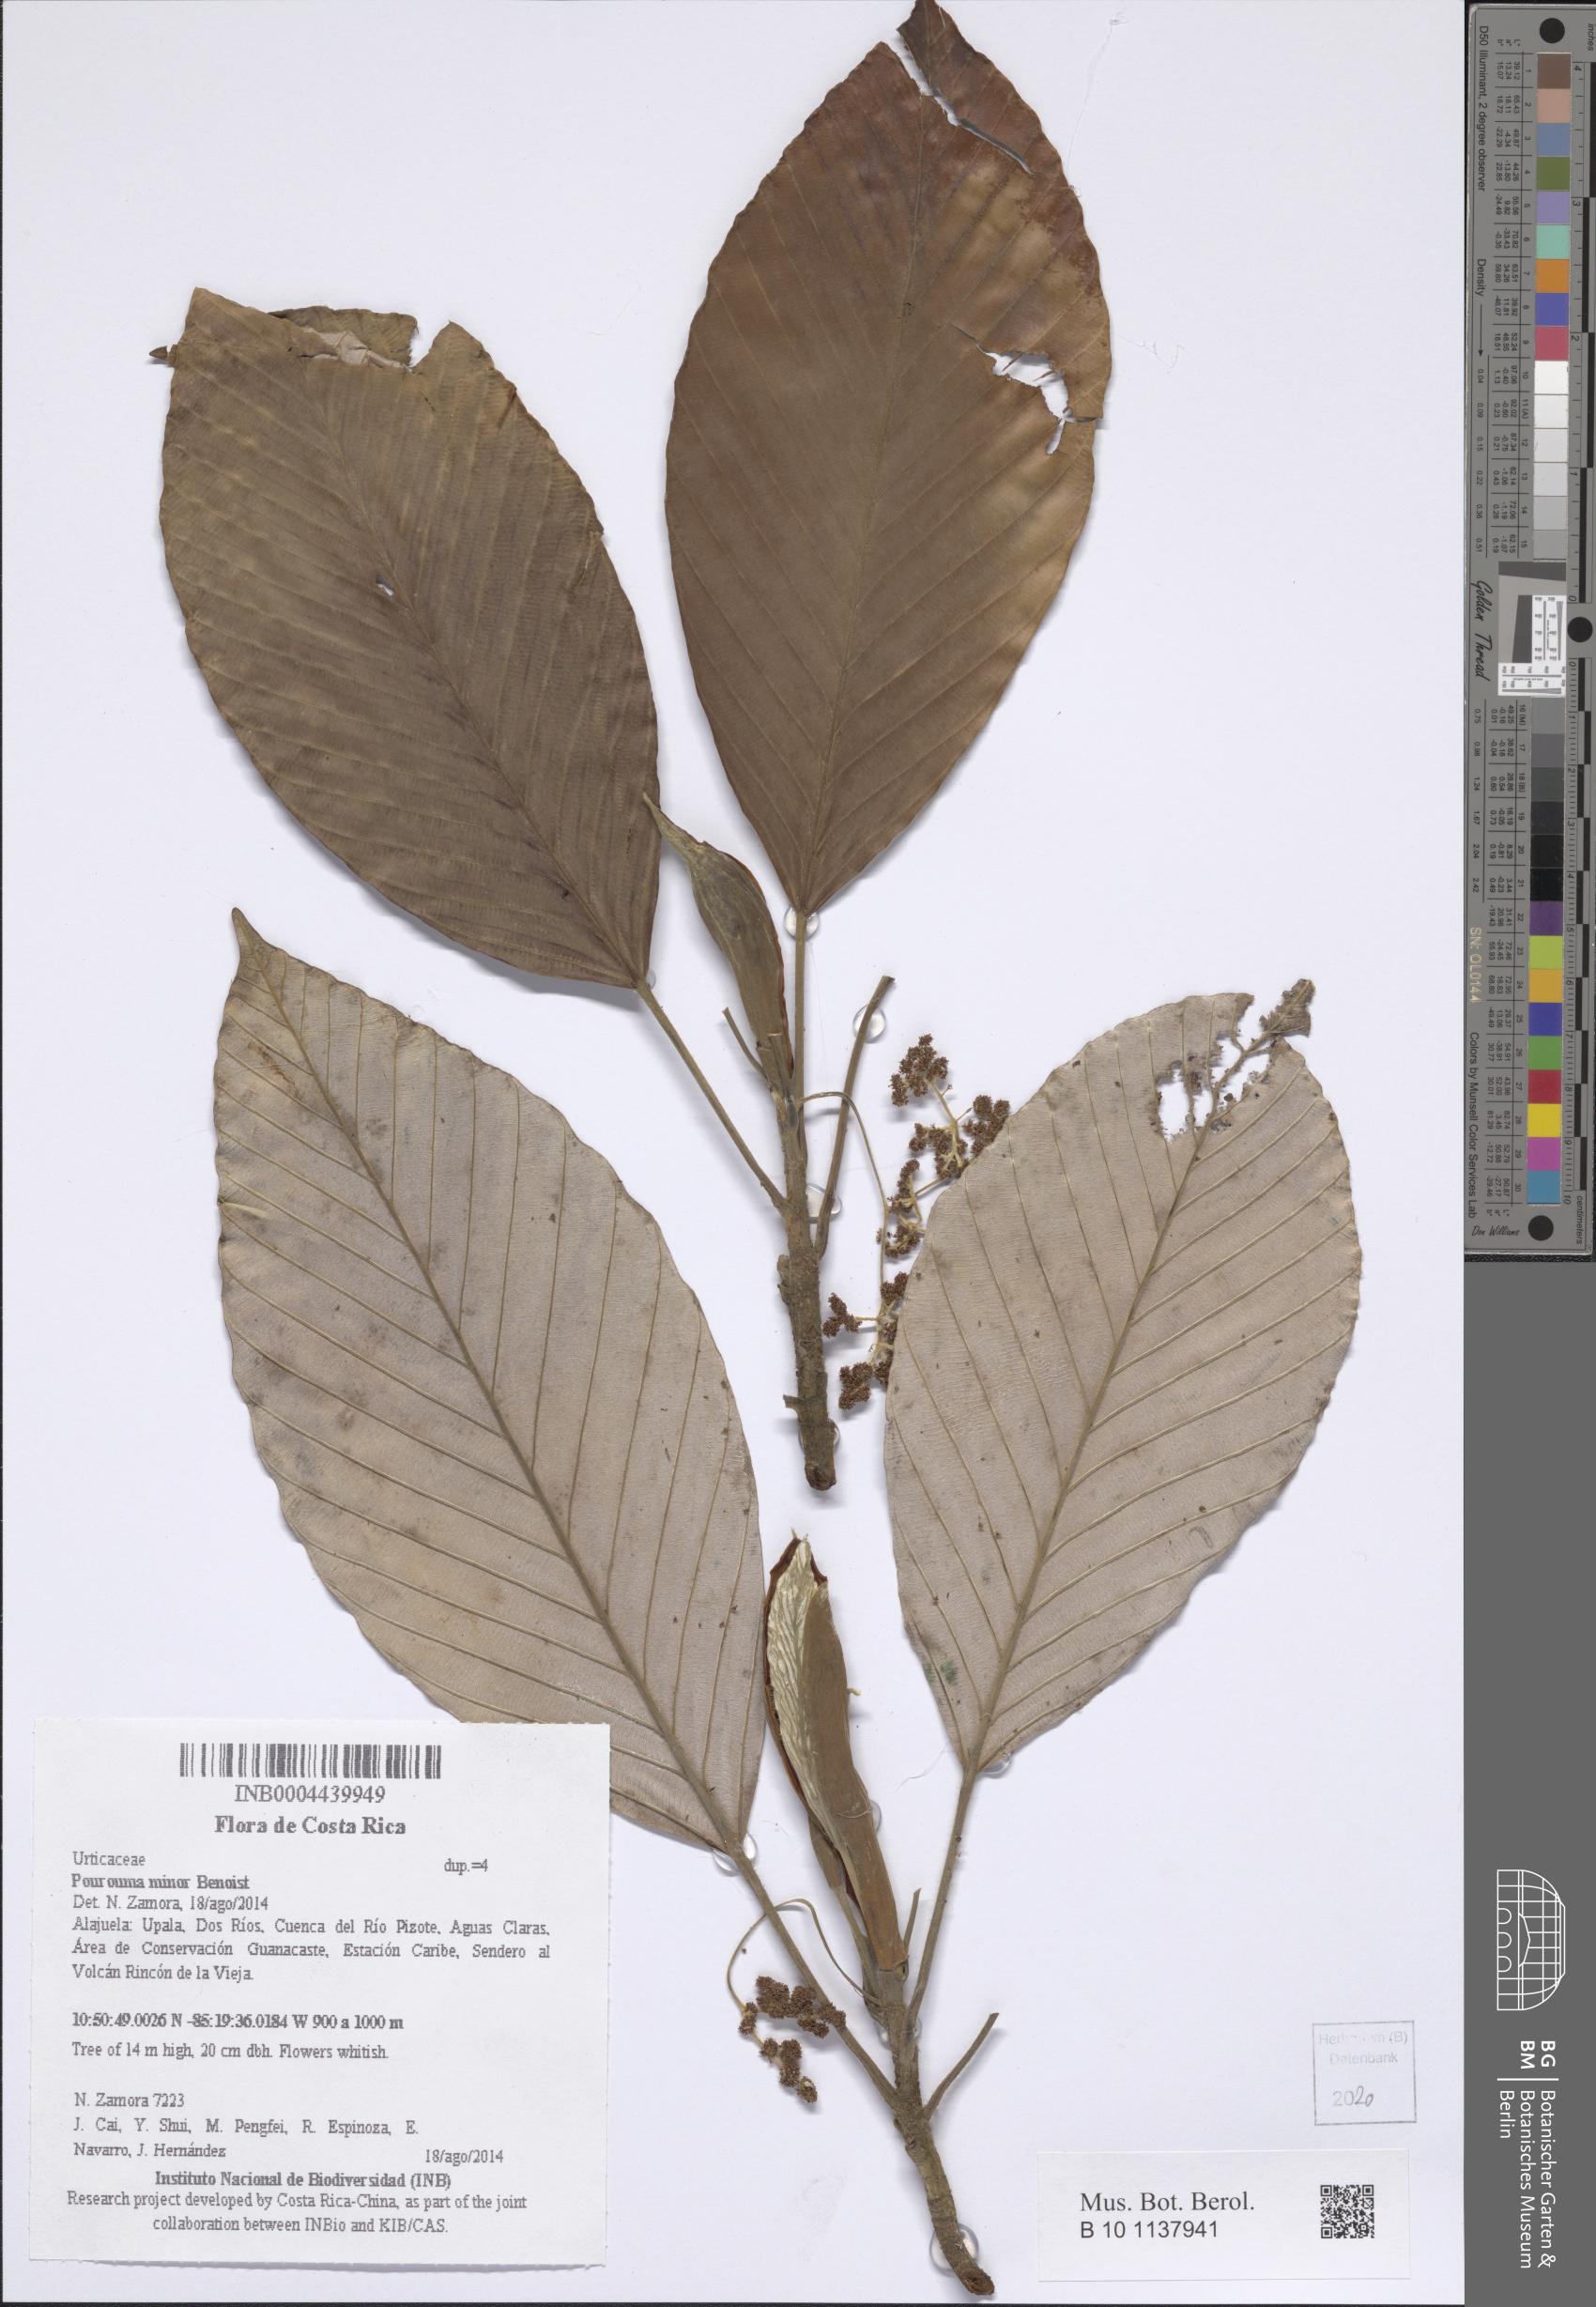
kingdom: Plantae
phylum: Tracheophyta
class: Magnoliopsida
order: Rosales
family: Urticaceae
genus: Pourouma
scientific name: Pourouma minor
